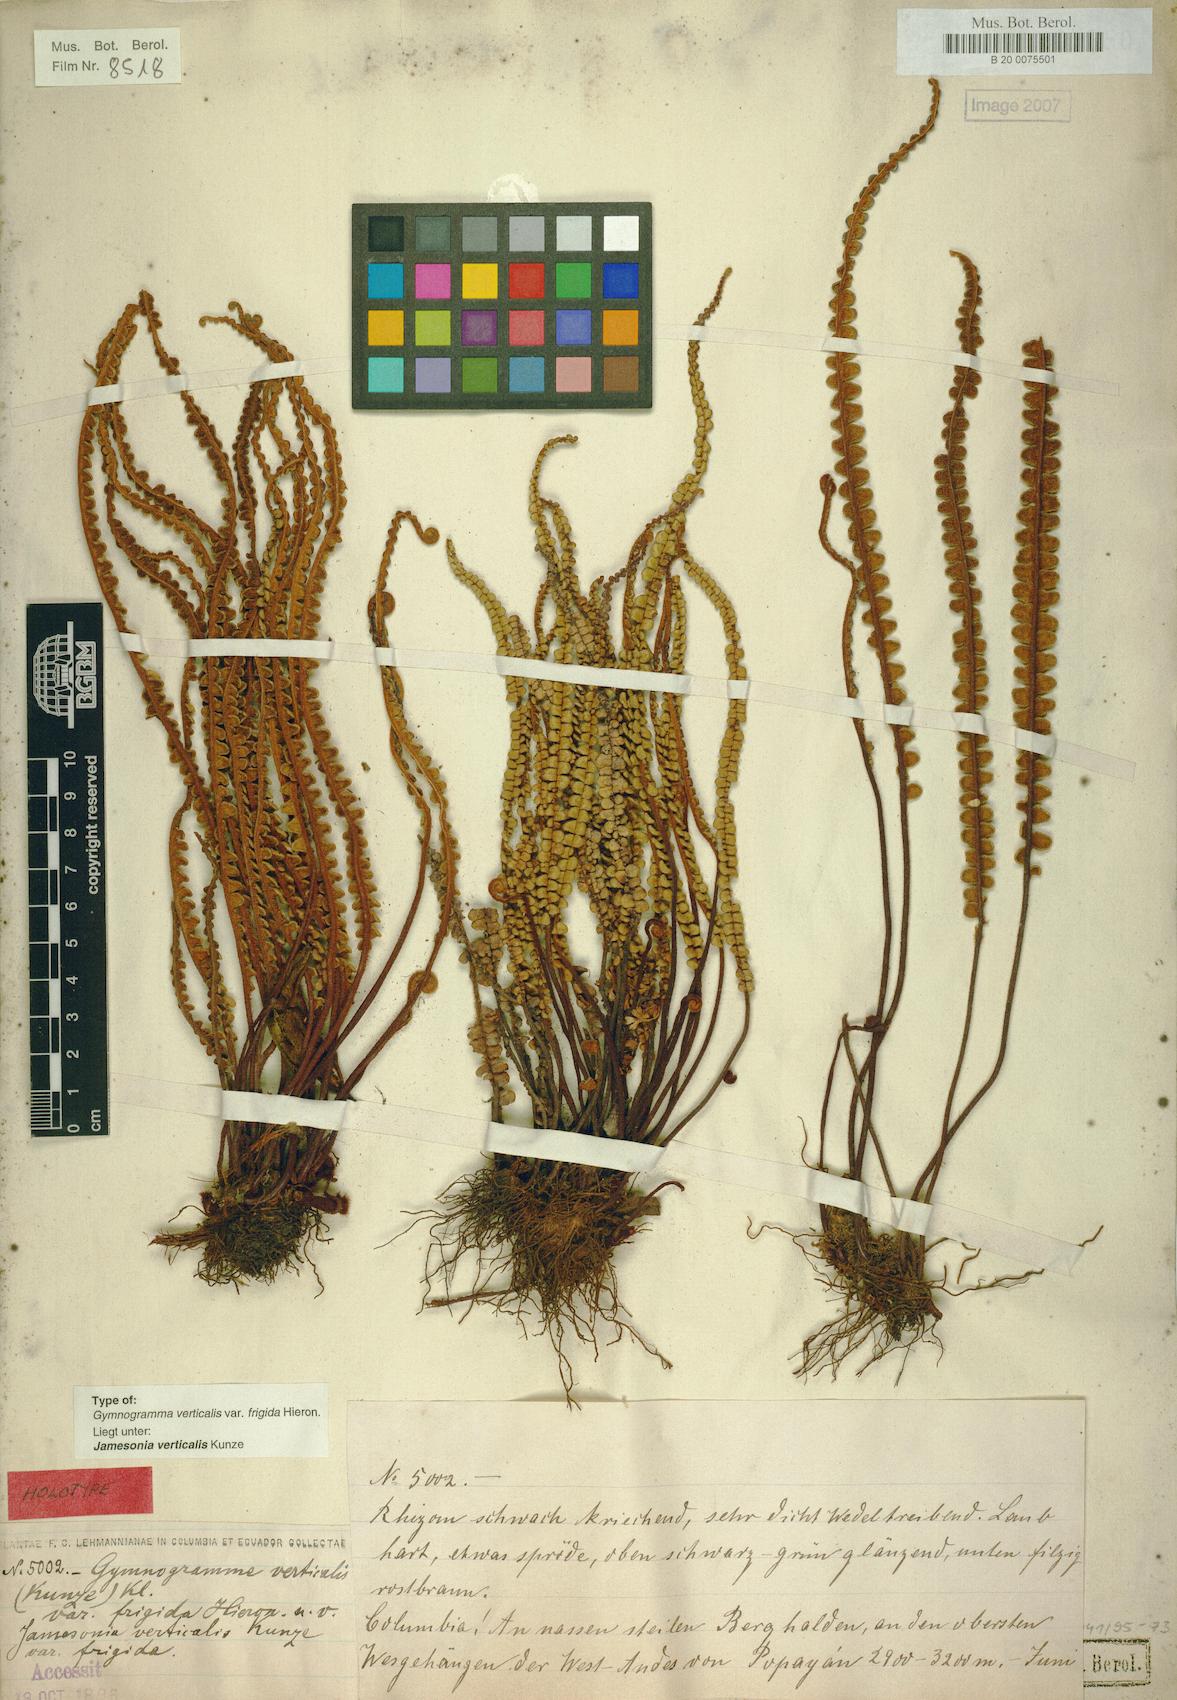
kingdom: Plantae
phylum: Tracheophyta
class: Polypodiopsida
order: Polypodiales
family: Pteridaceae
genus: Jamesonia
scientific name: Jamesonia verticalis
